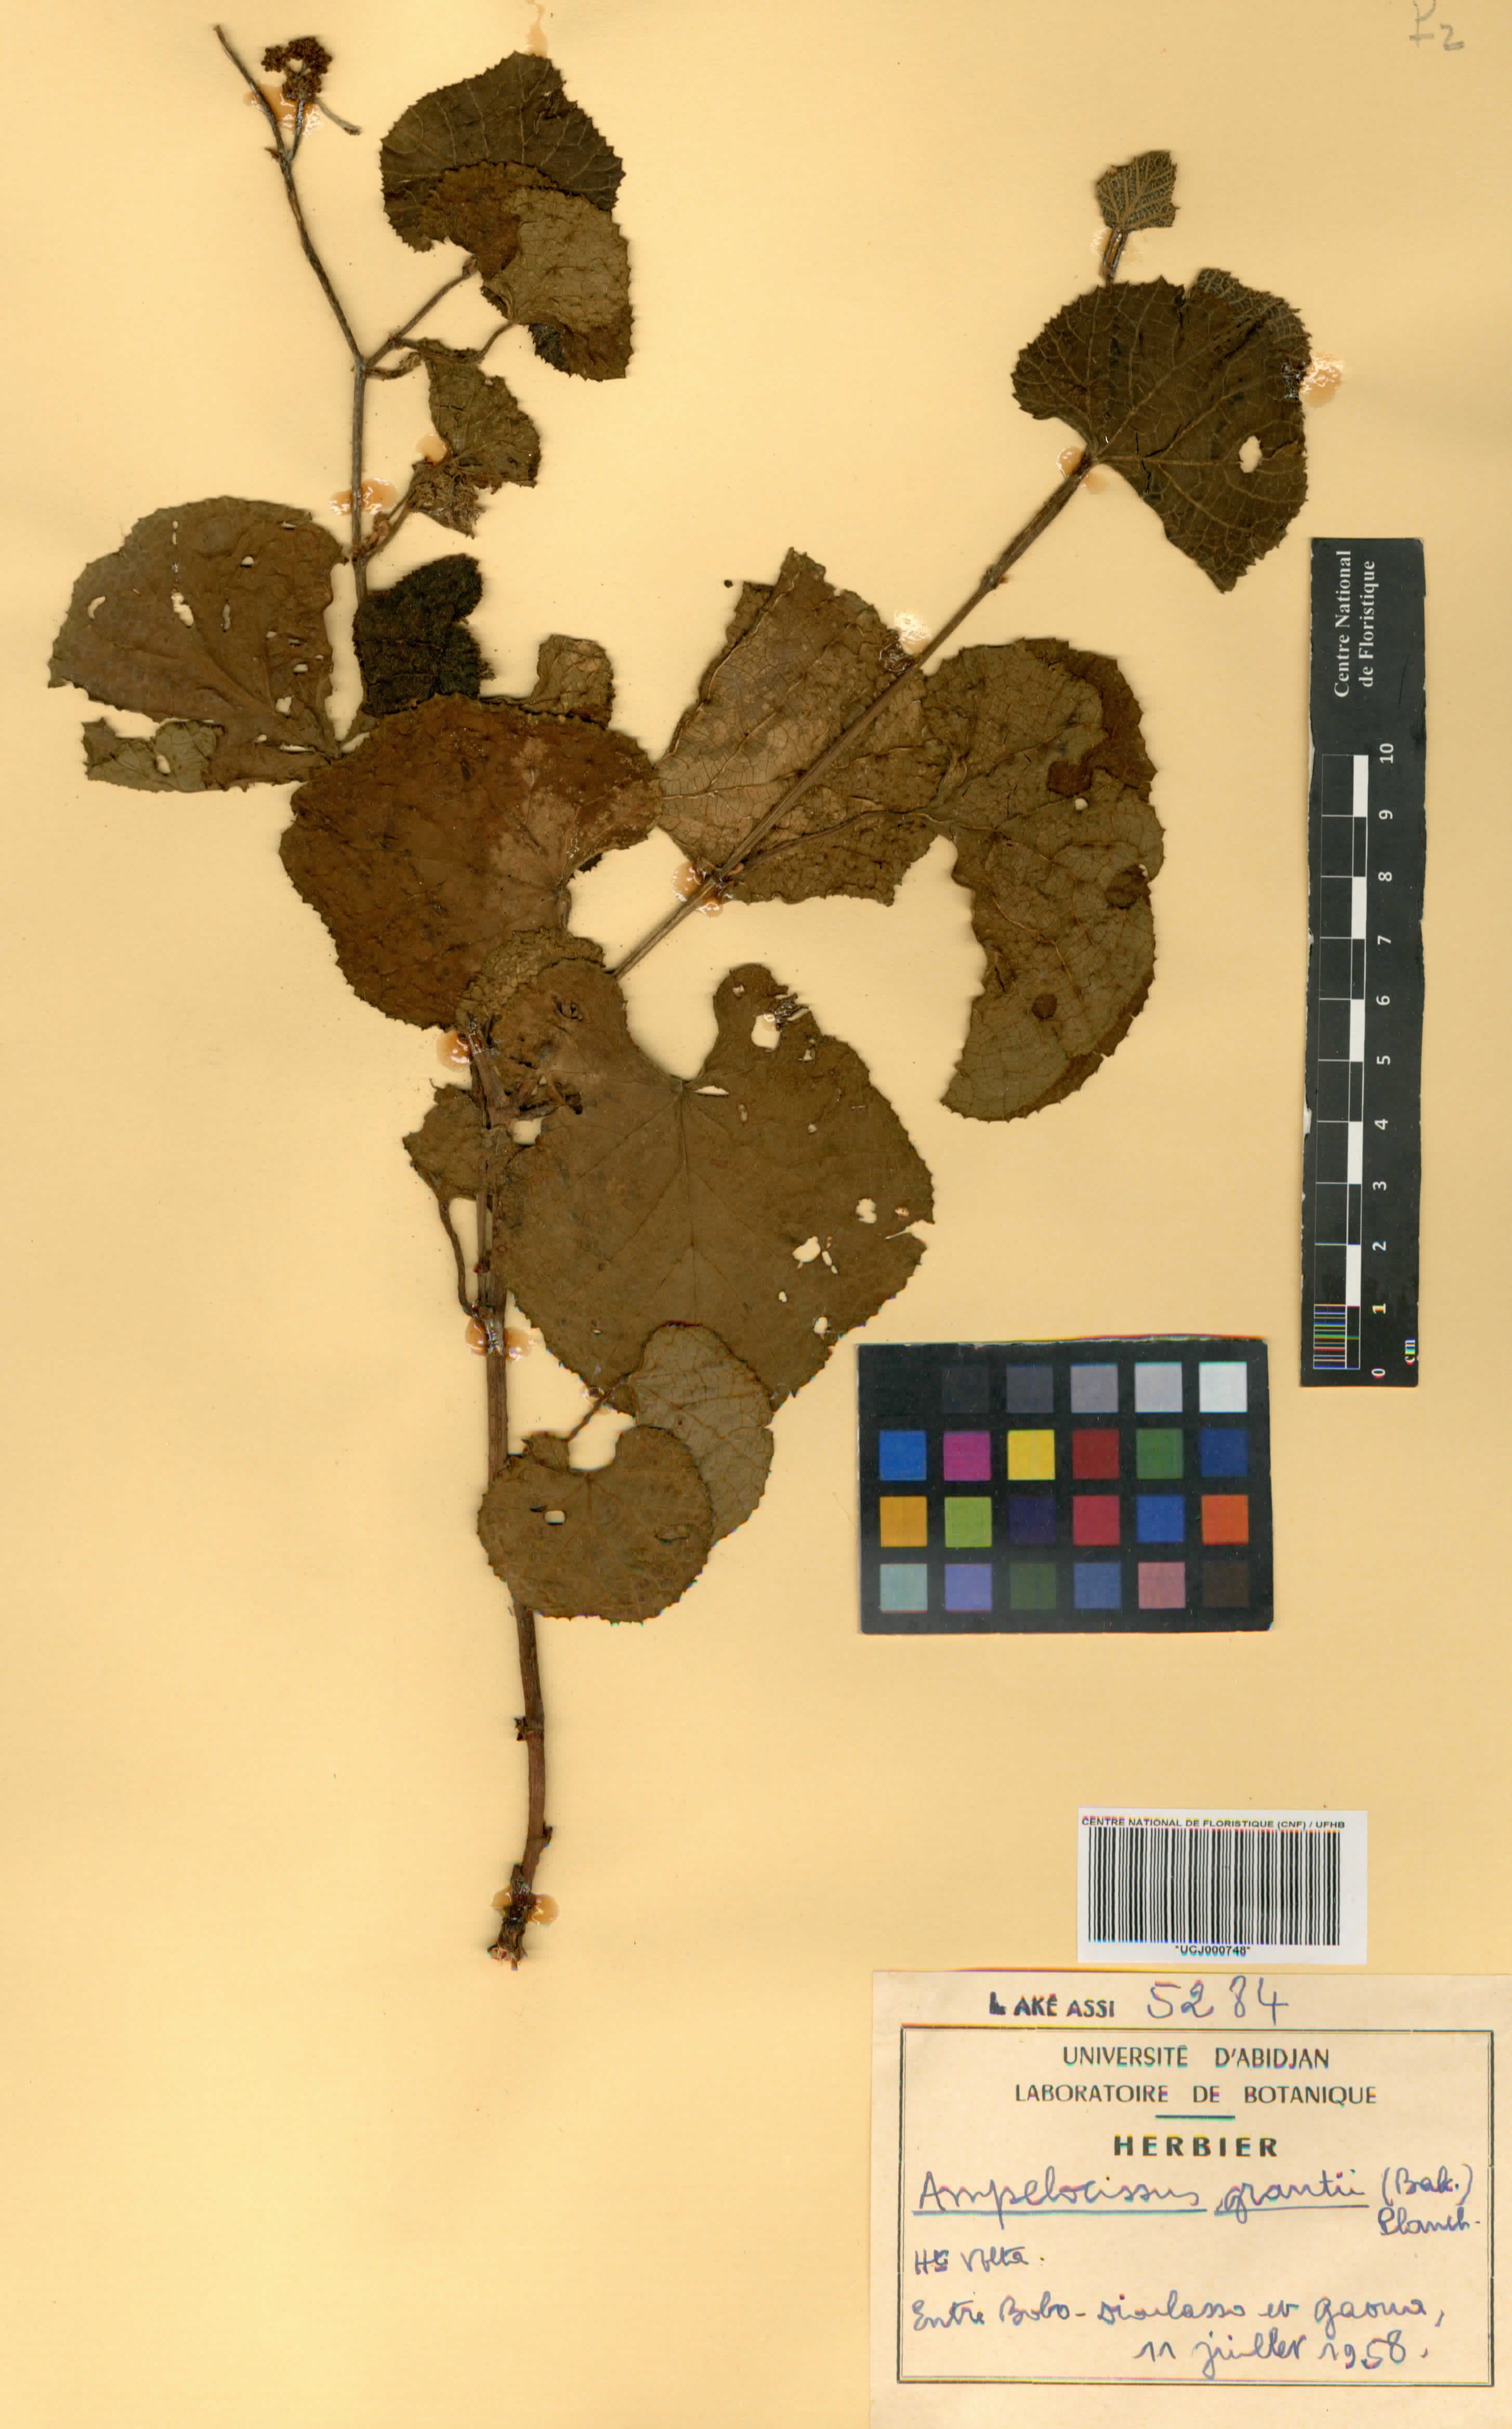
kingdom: Plantae
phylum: Tracheophyta
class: Magnoliopsida
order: Vitales
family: Vitaceae
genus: Ampelocissus
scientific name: Ampelocissus africana
